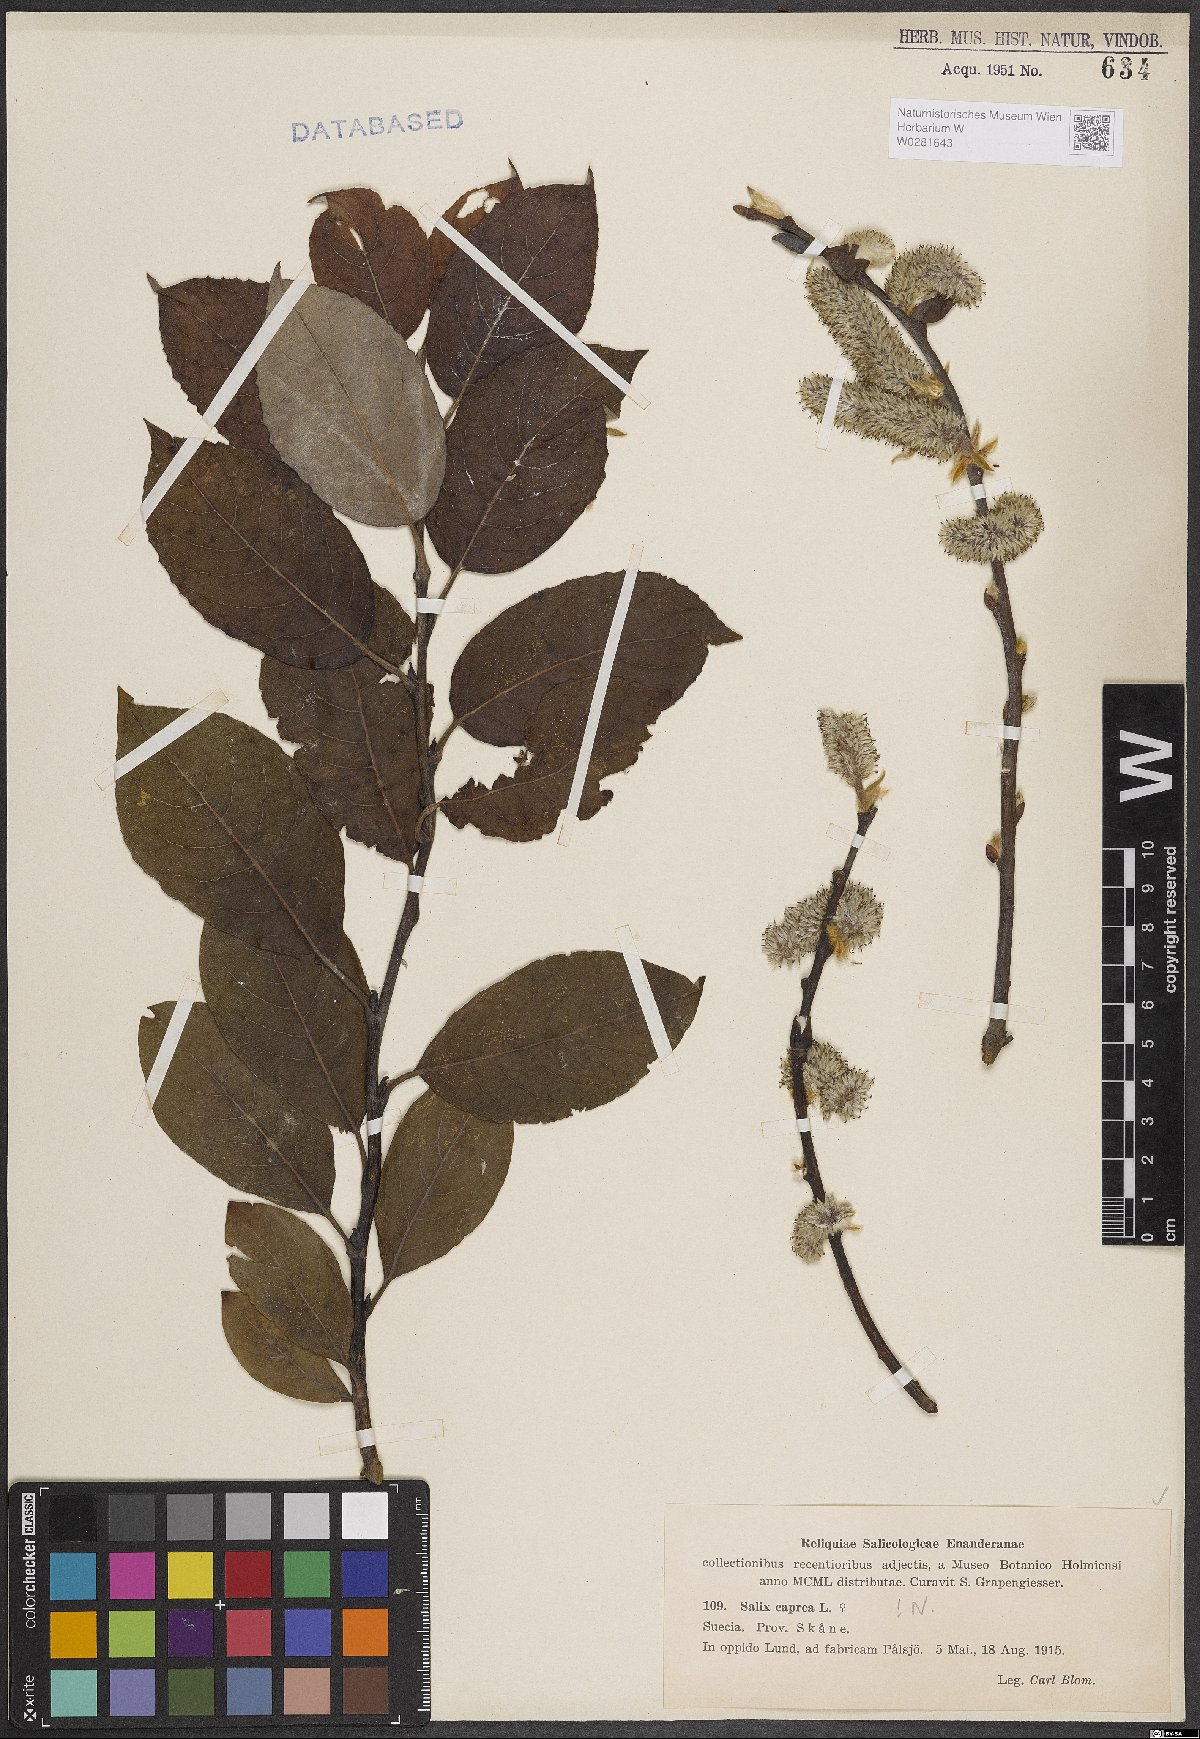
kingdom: Plantae
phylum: Tracheophyta
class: Magnoliopsida
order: Malpighiales
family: Salicaceae
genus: Salix
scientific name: Salix caprea
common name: Goat willow
